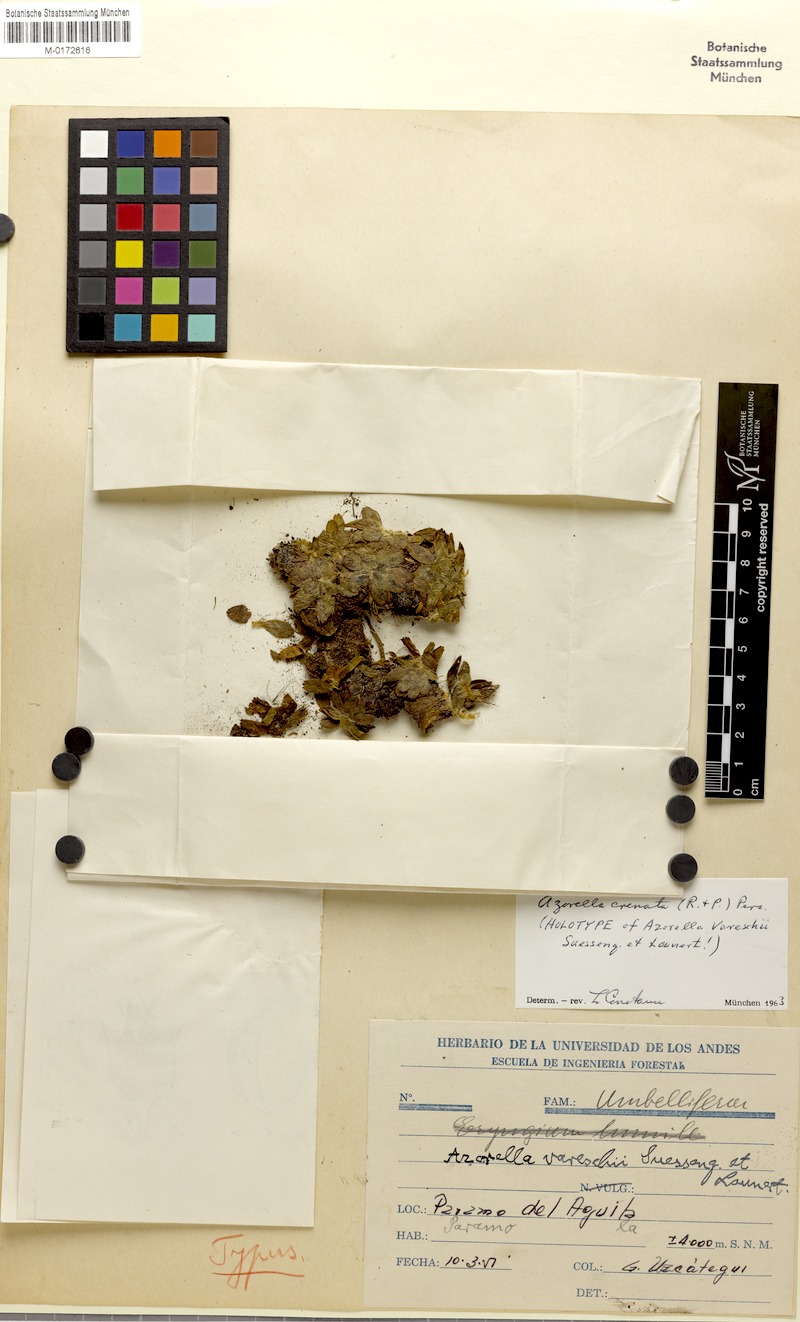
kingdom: Plantae
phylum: Tracheophyta
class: Magnoliopsida
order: Apiales
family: Apiaceae
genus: Azorella
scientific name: Azorella crenata
